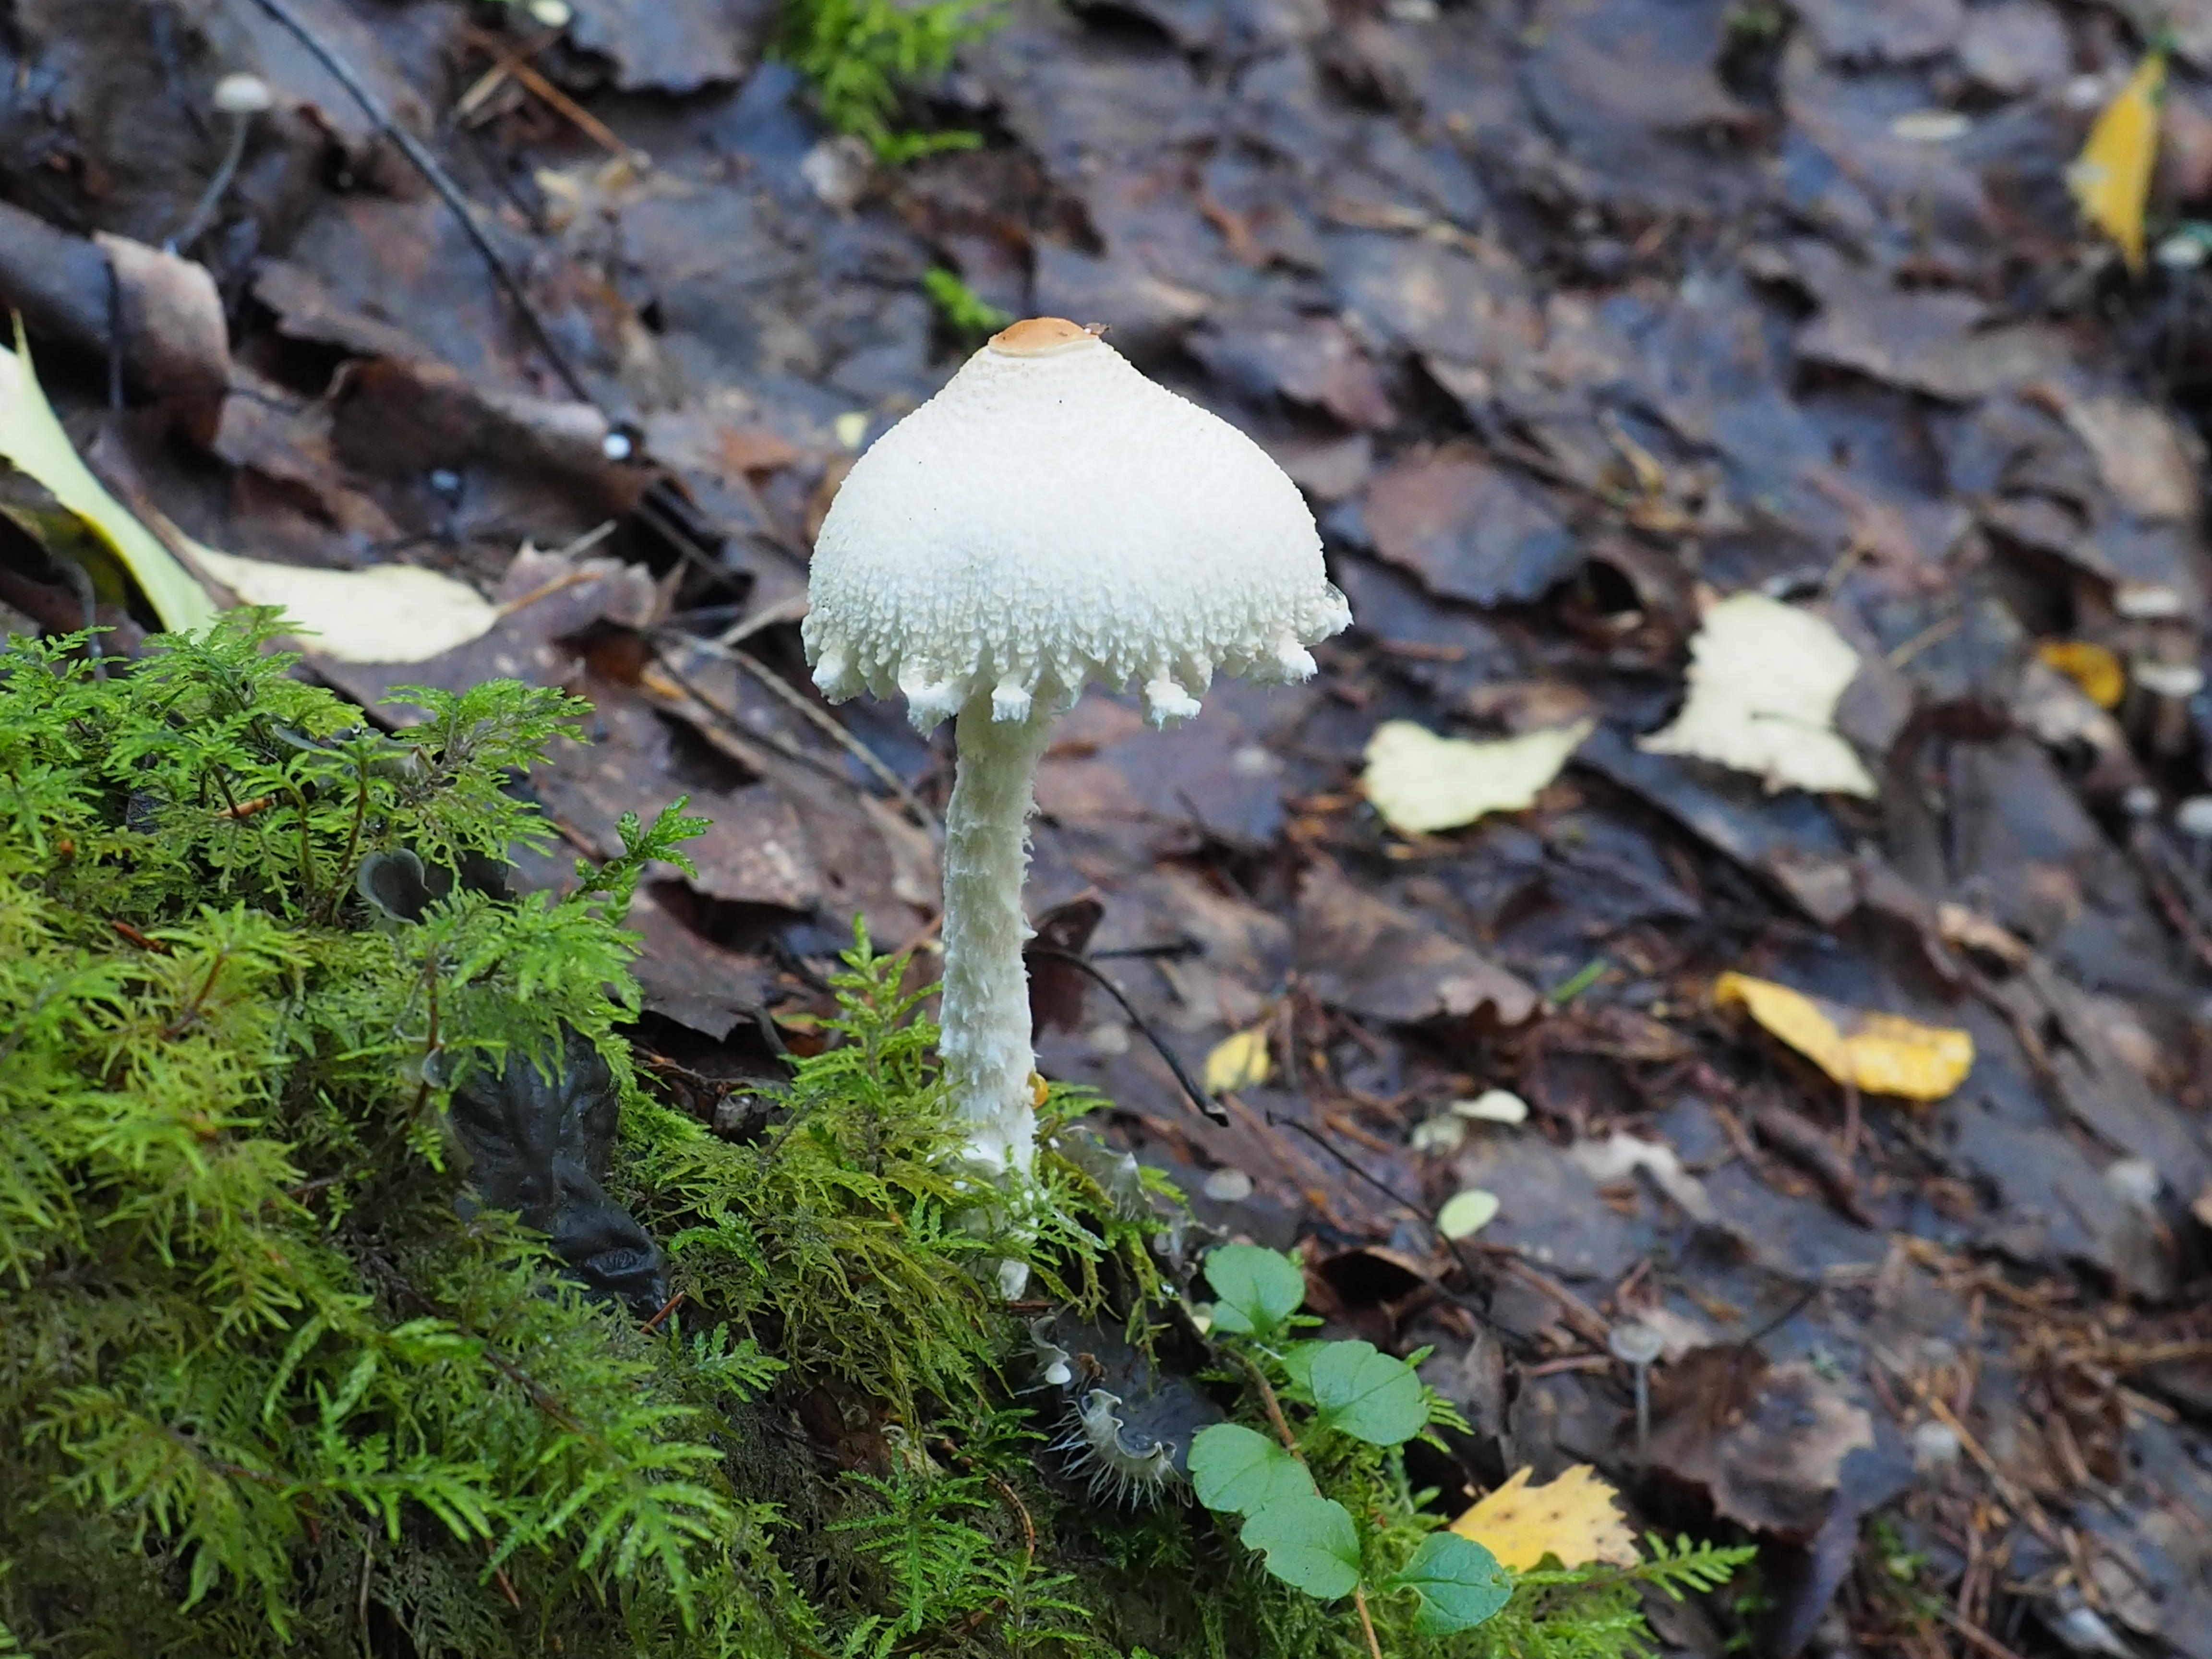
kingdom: Fungi
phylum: Basidiomycota
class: Agaricomycetes
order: Agaricales
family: Agaricaceae
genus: Lepiota
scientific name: Lepiota clypeolaria
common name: Shield dapperling
